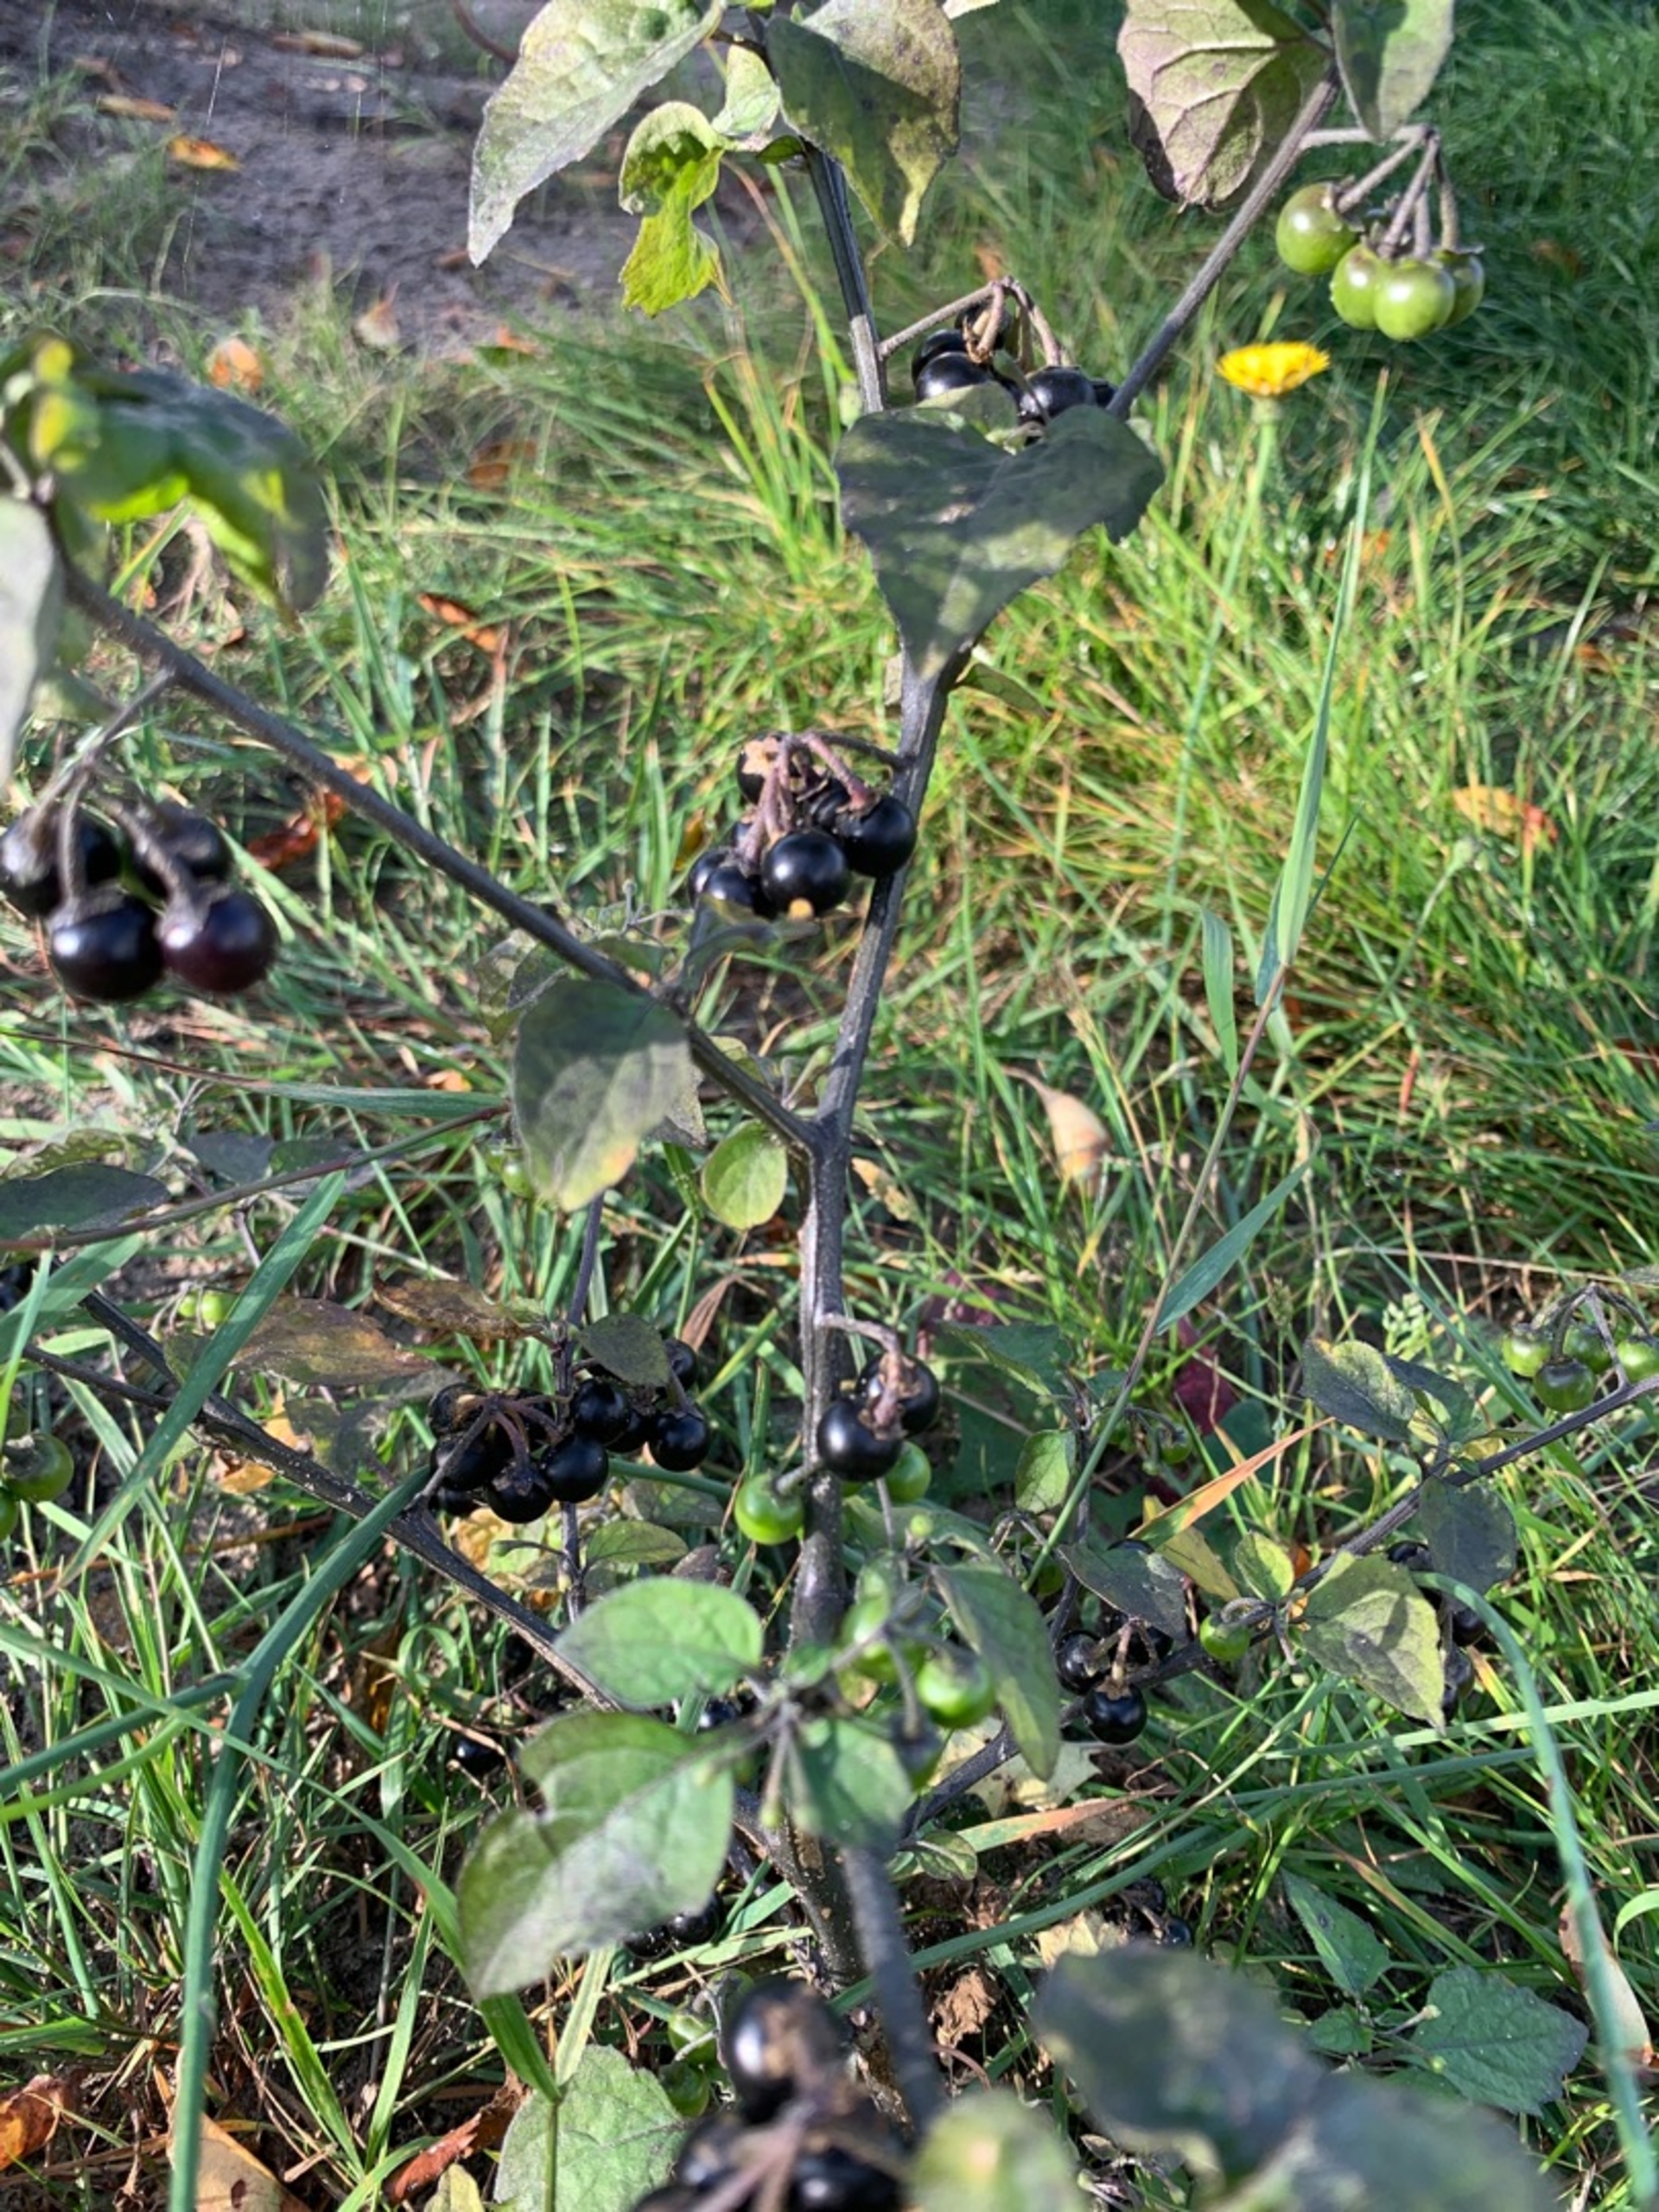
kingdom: Plantae
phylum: Tracheophyta
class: Magnoliopsida
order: Solanales
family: Solanaceae
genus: Solanum
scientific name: Solanum nigrum
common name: Sort natskygge
